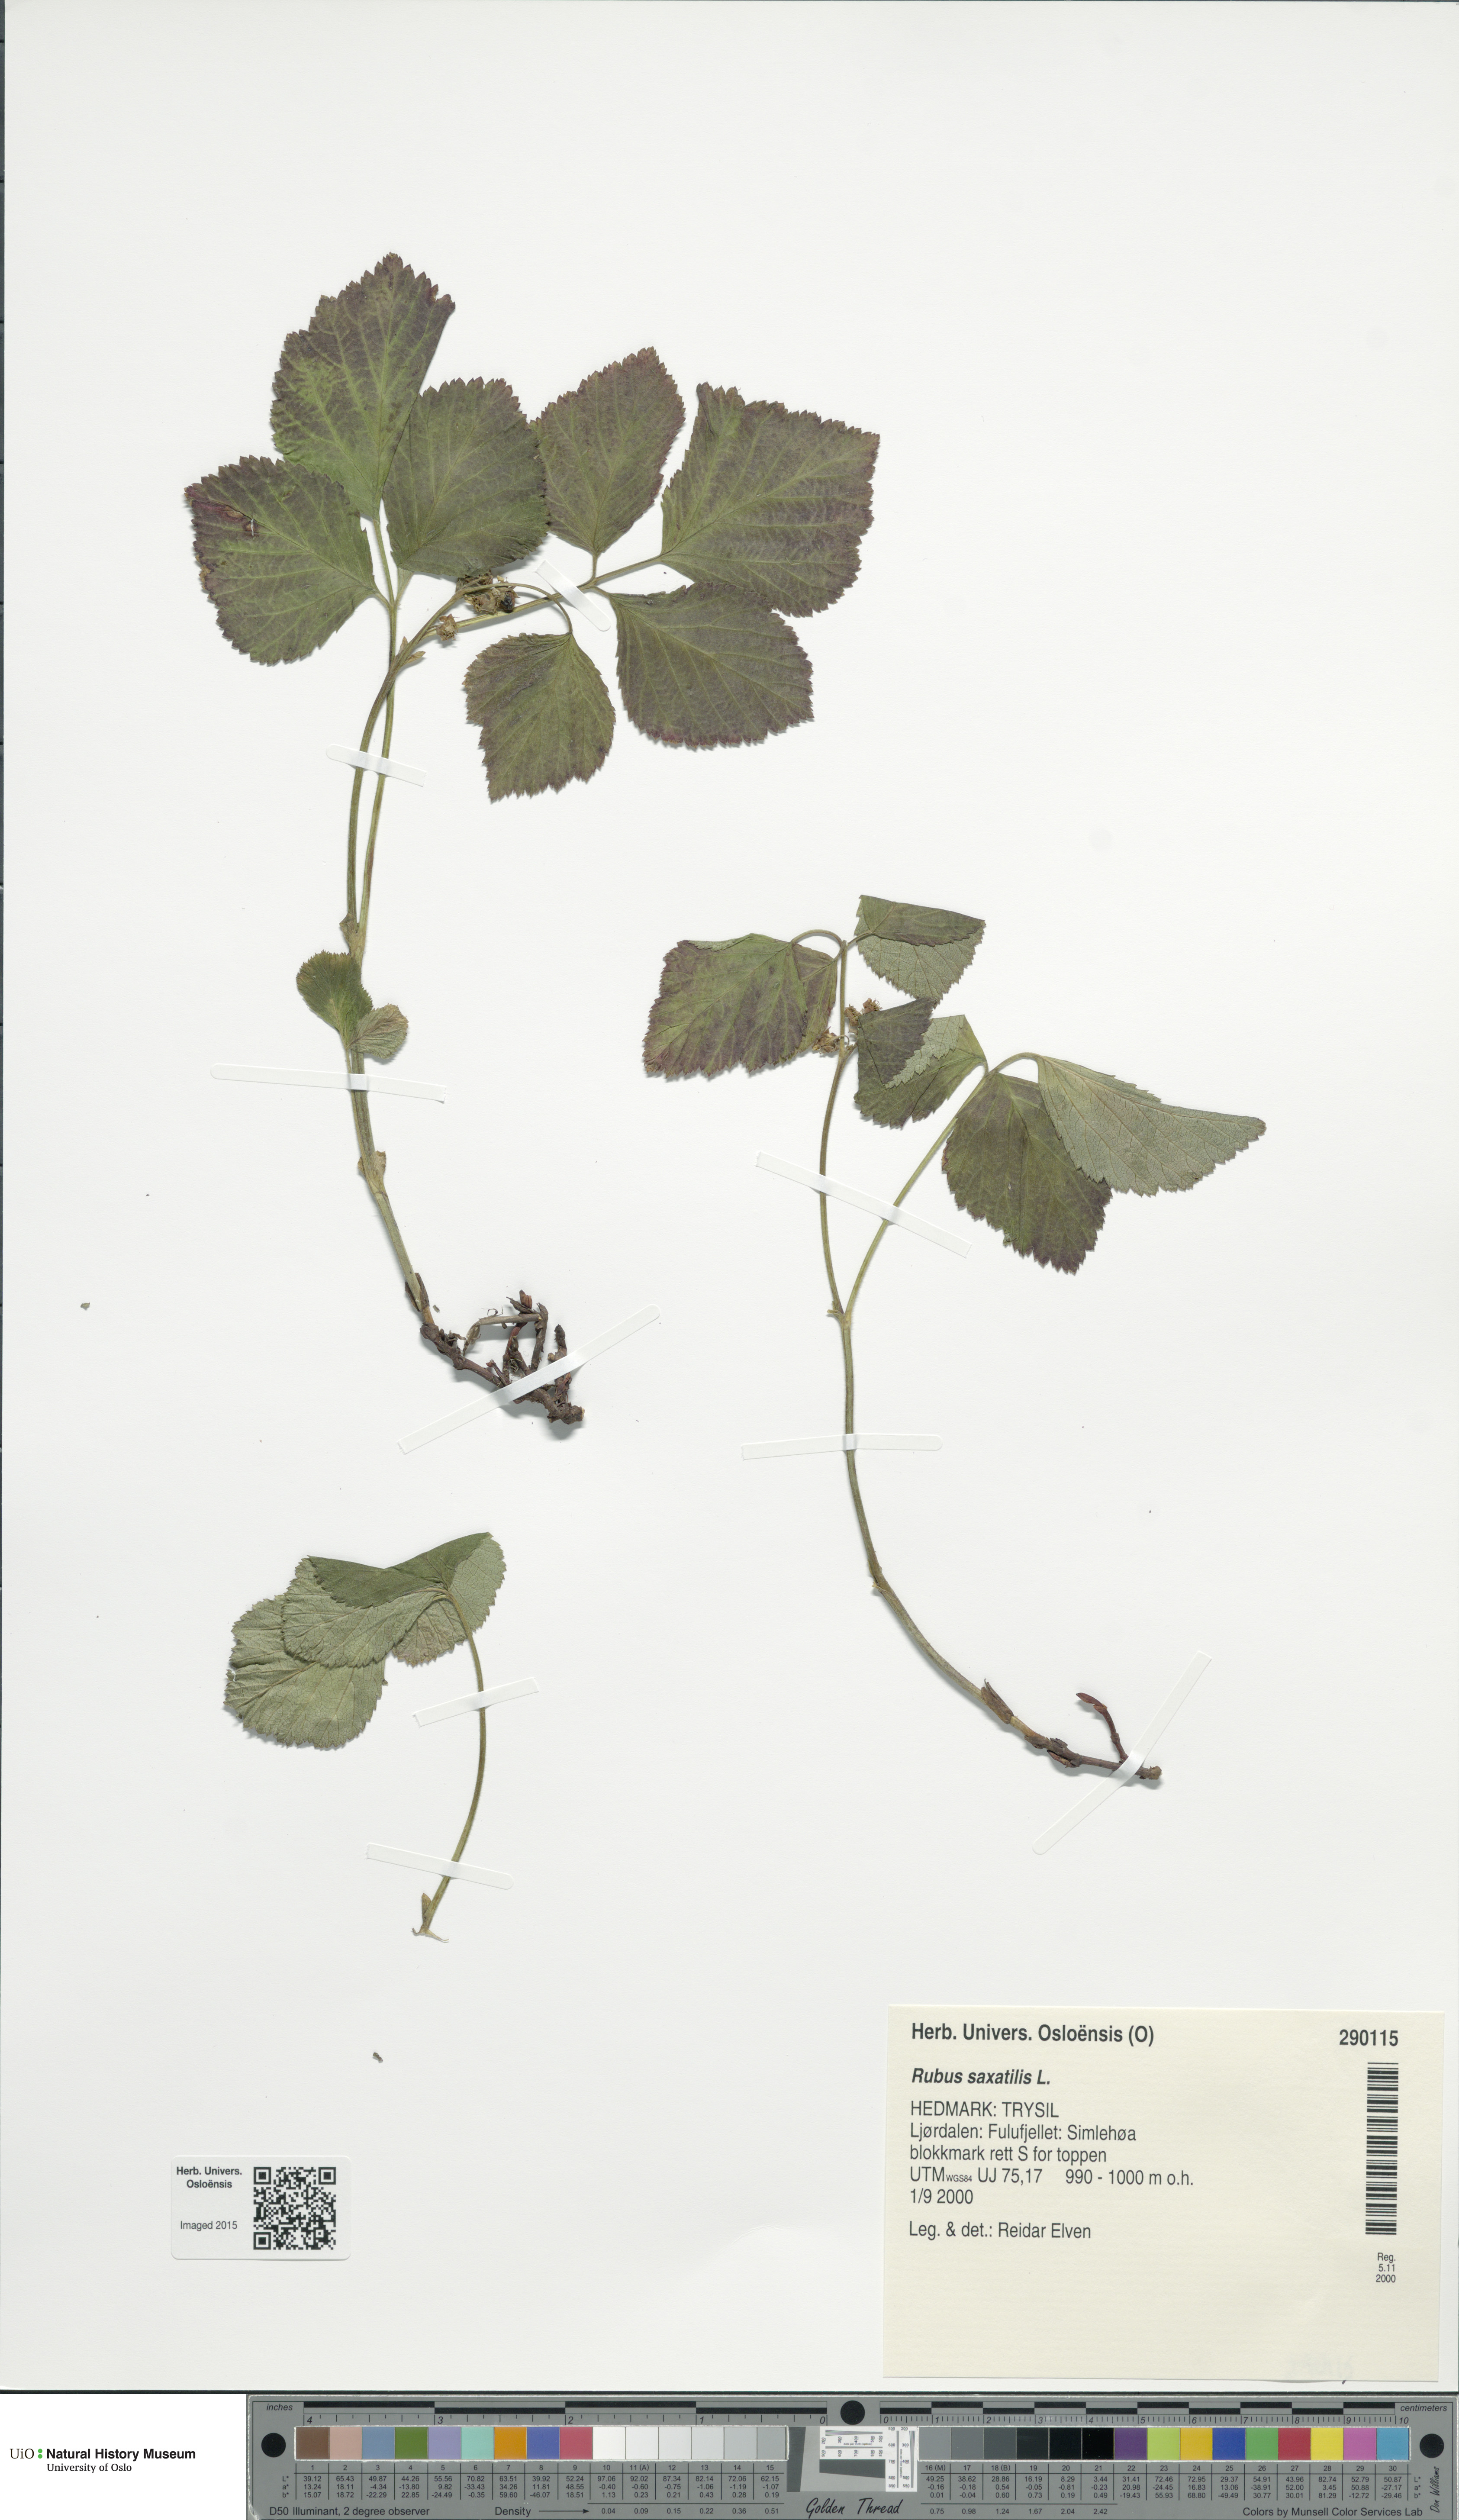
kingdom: Plantae
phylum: Tracheophyta
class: Magnoliopsida
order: Rosales
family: Rosaceae
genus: Rubus
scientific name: Rubus saxatilis
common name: Stone bramble
